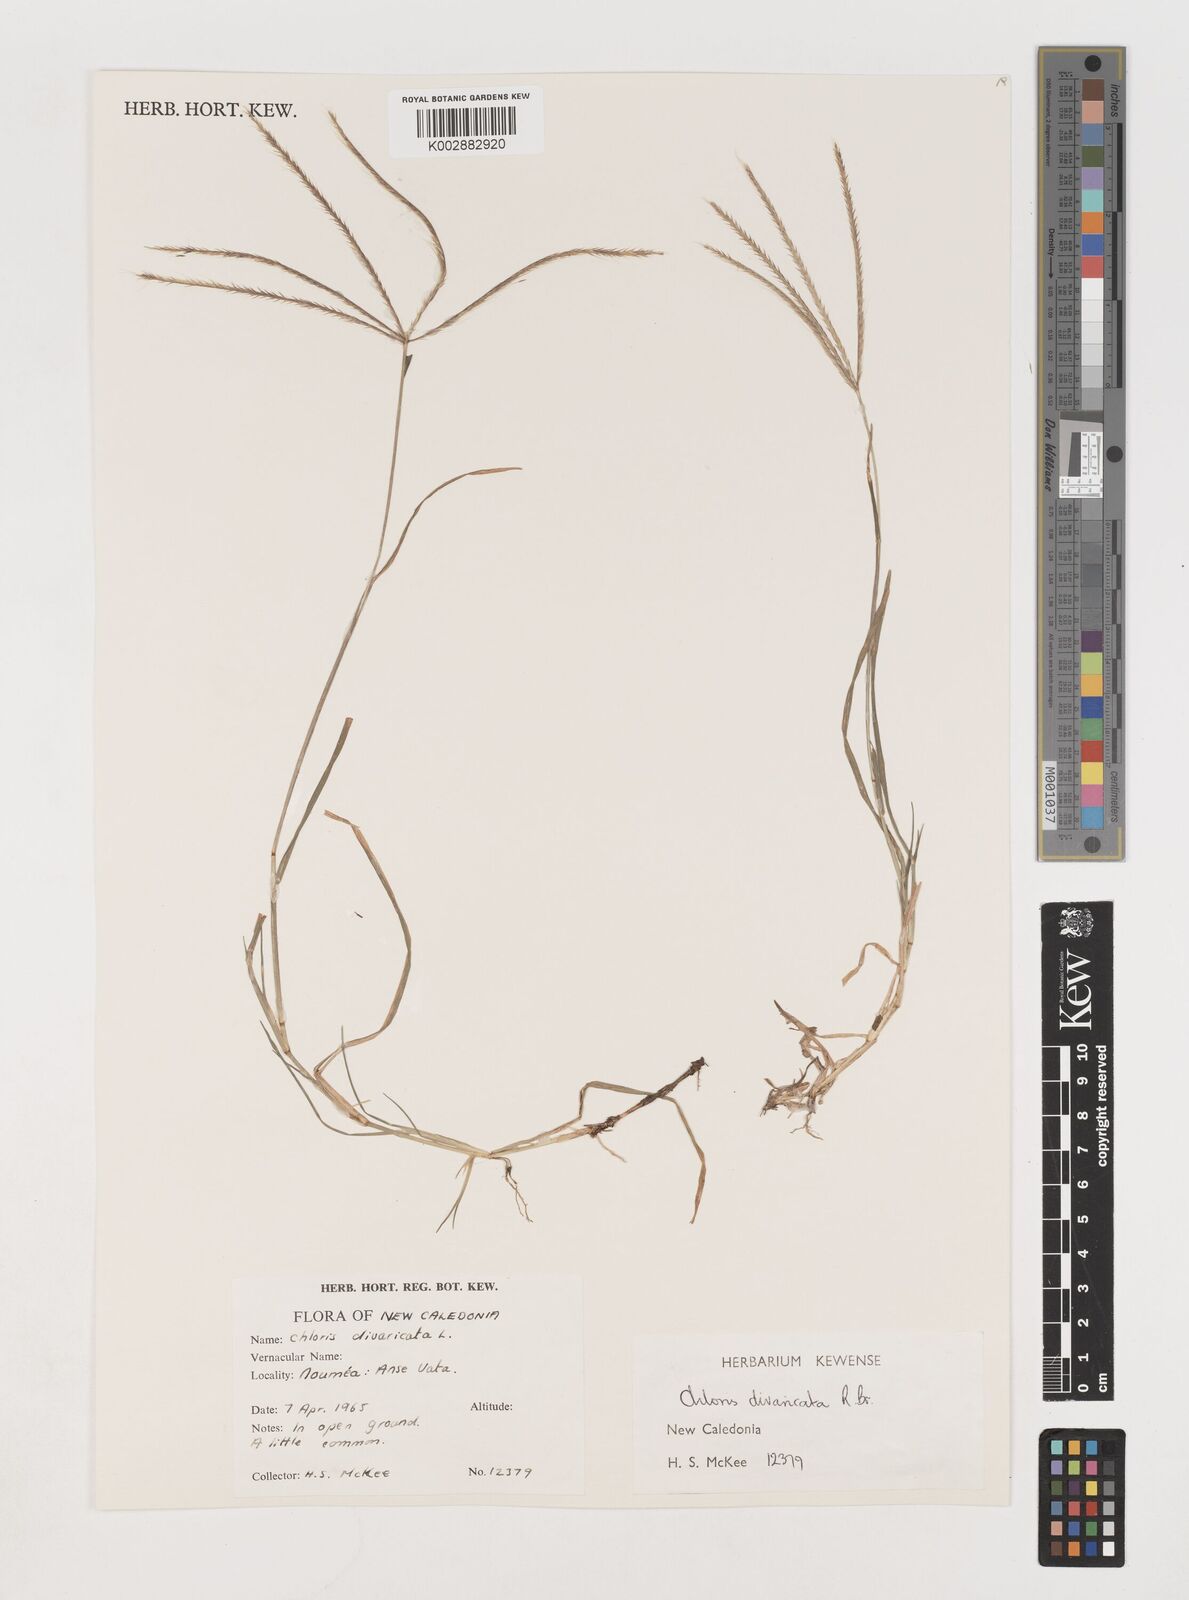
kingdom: Plantae
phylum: Tracheophyta
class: Liliopsida
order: Poales
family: Poaceae
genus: Chloris
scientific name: Chloris divaricata
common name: Spreading windmill grass
